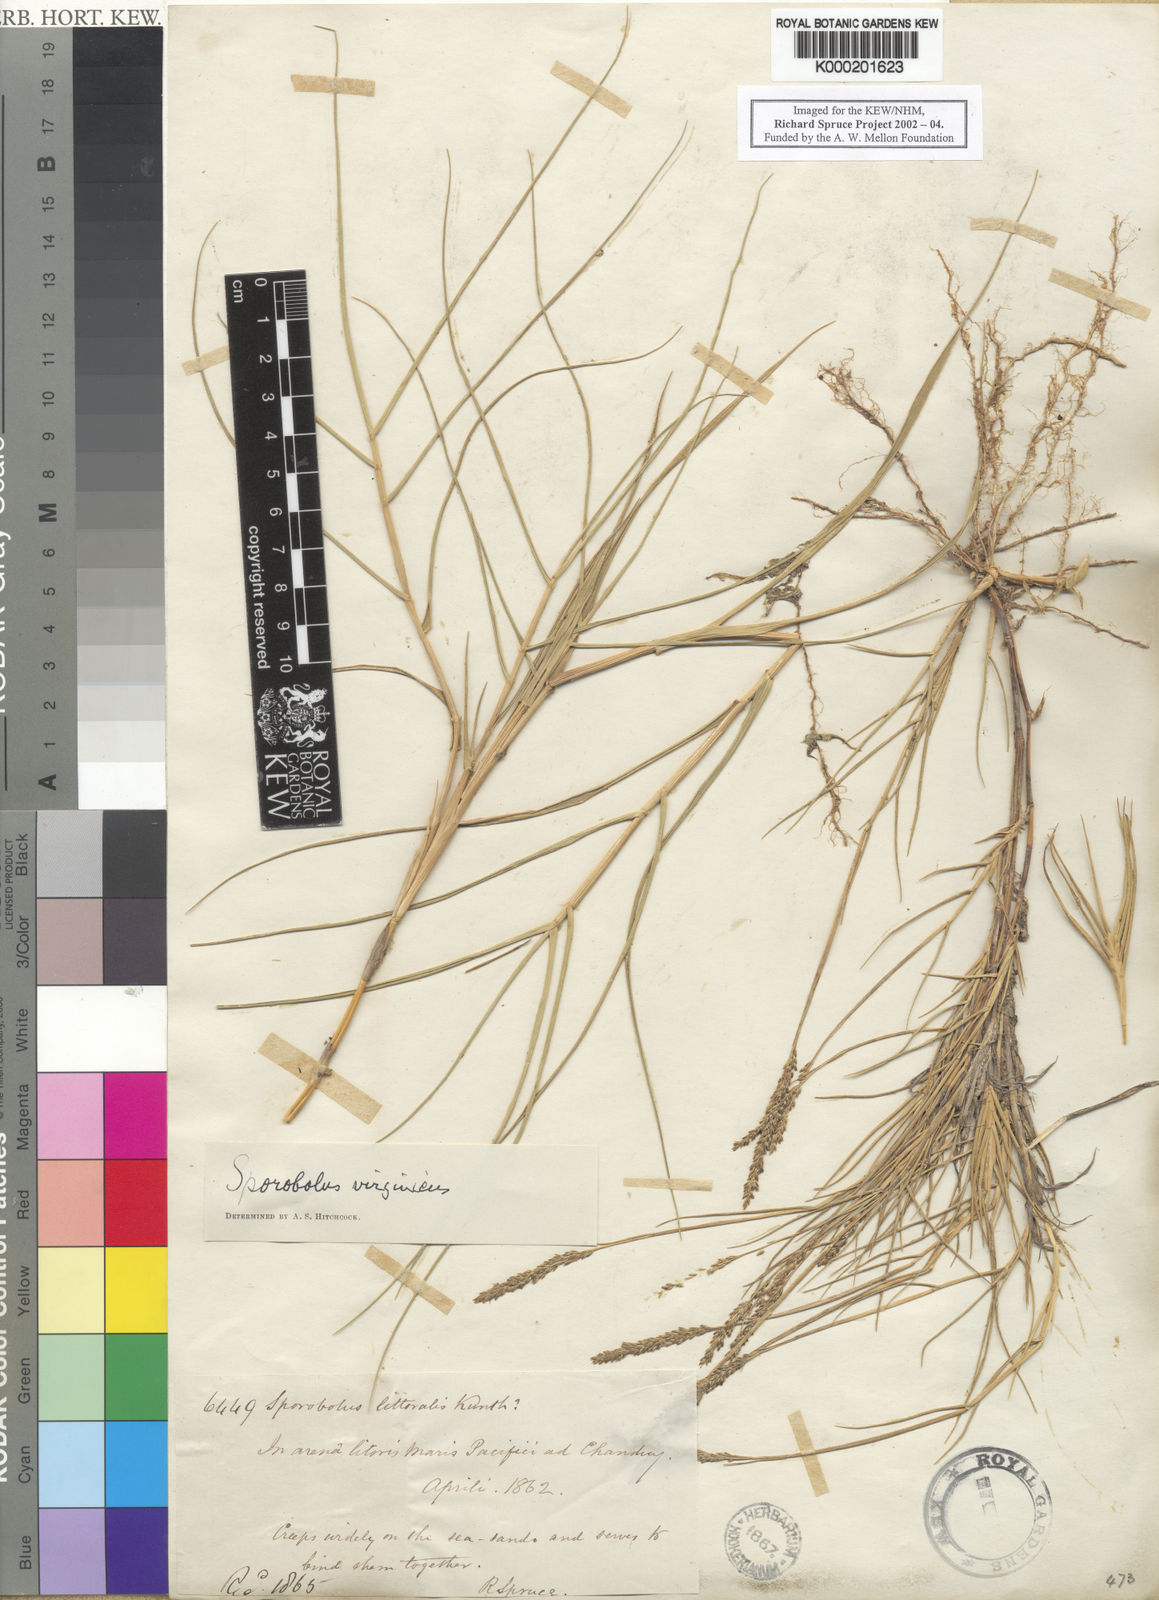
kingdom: Plantae
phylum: Tracheophyta
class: Liliopsida
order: Poales
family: Poaceae
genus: Sporobolus
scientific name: Sporobolus virginicus
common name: Beach dropseed
